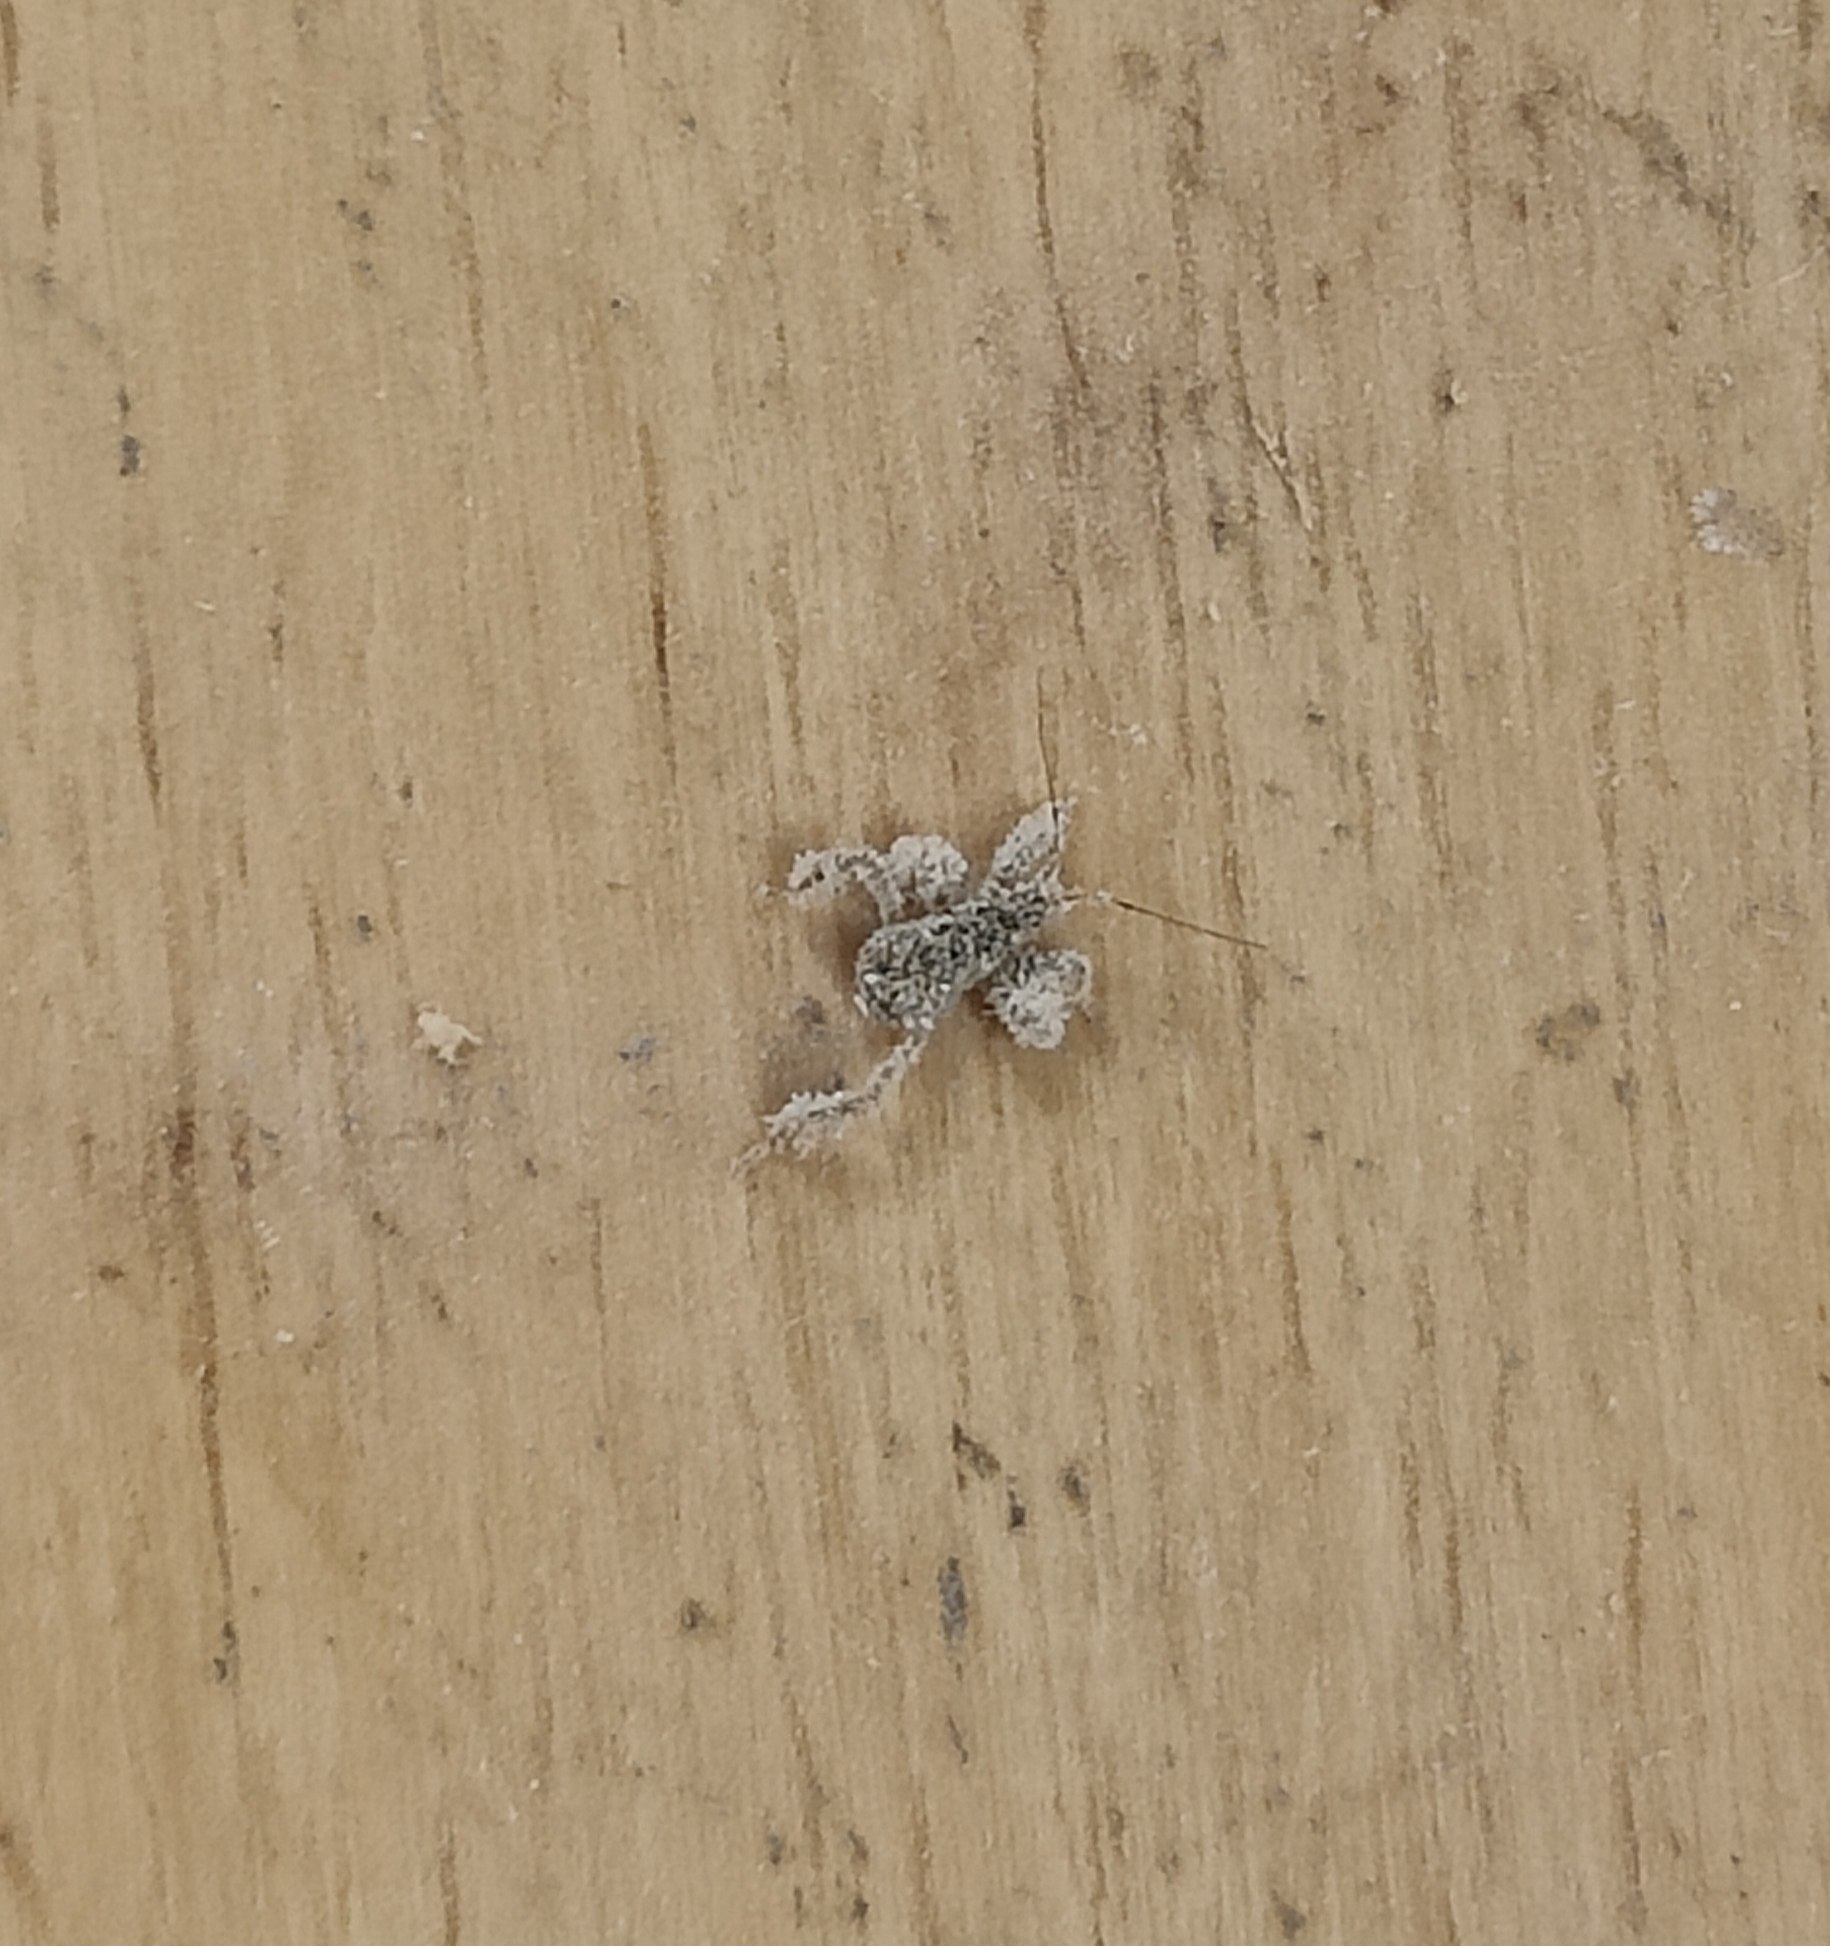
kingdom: Animalia
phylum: Arthropoda
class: Insecta
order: Hemiptera
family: Reduviidae
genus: Reduvius
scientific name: Reduvius personatus
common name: Skarntæge
